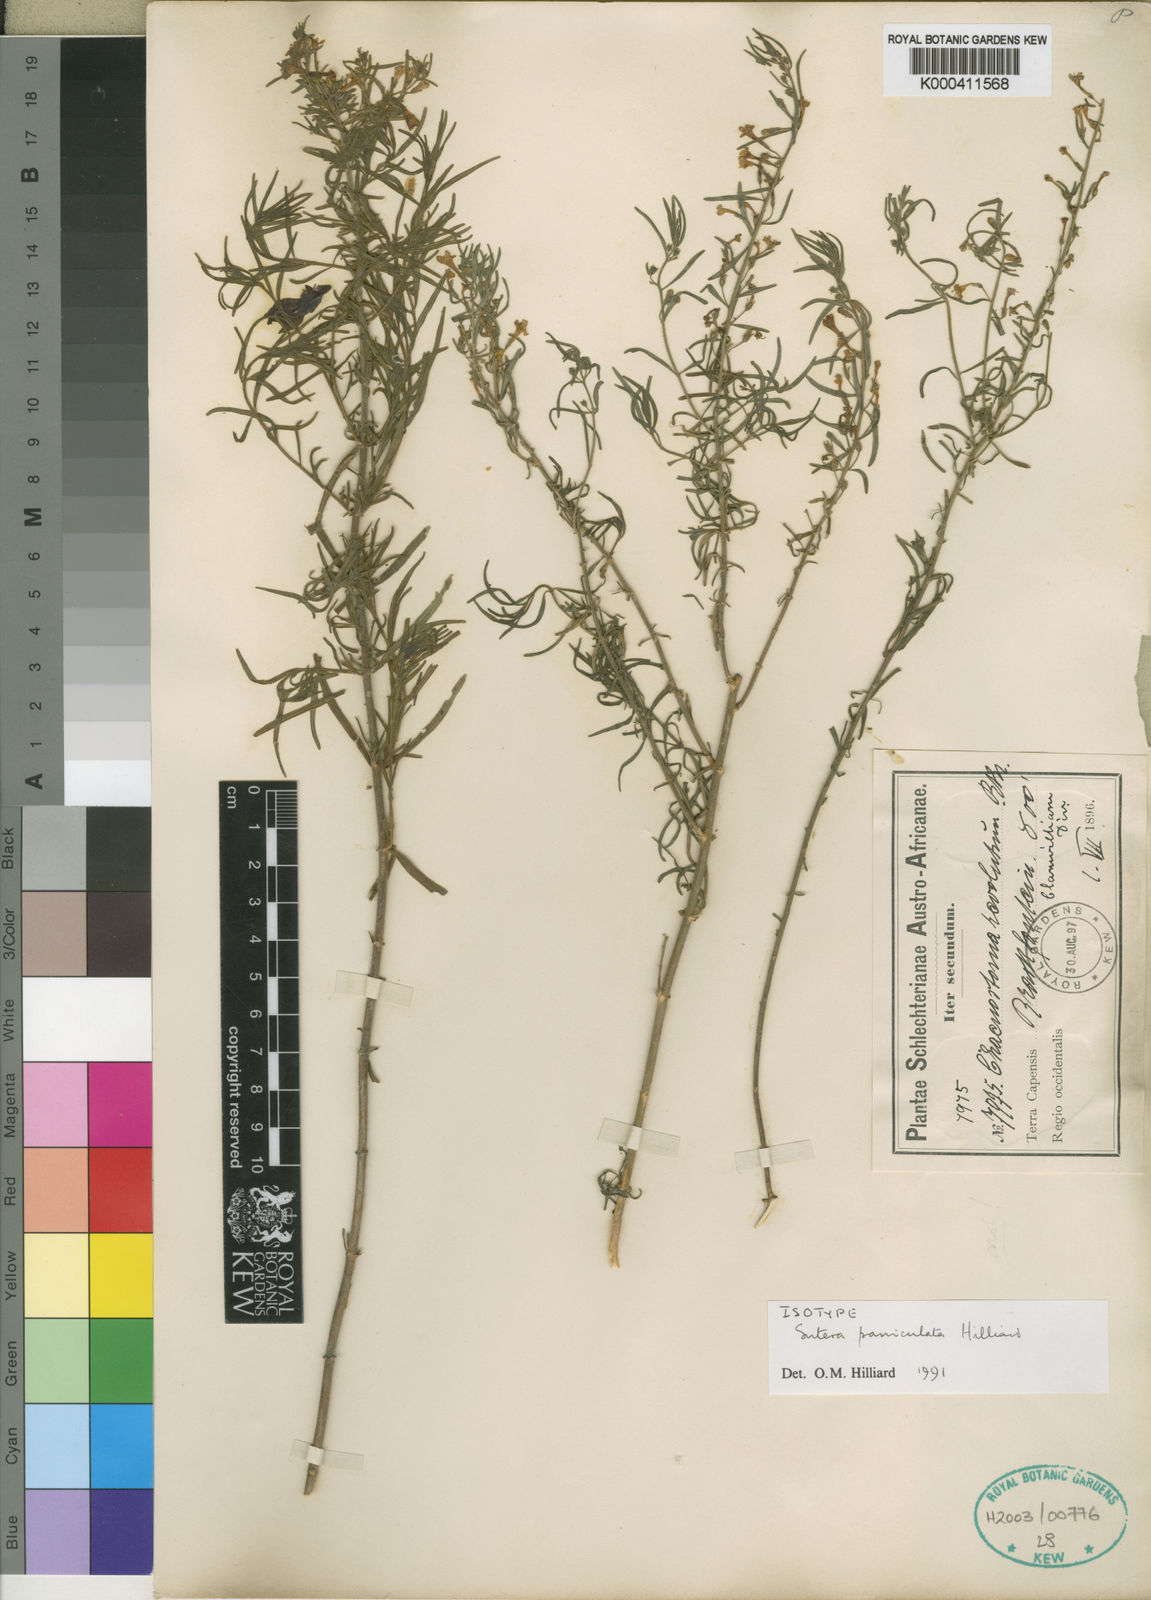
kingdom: Plantae
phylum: Tracheophyta
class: Magnoliopsida
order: Lamiales
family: Scrophulariaceae
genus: Chaenostoma
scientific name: Chaenostoma paniculatum
